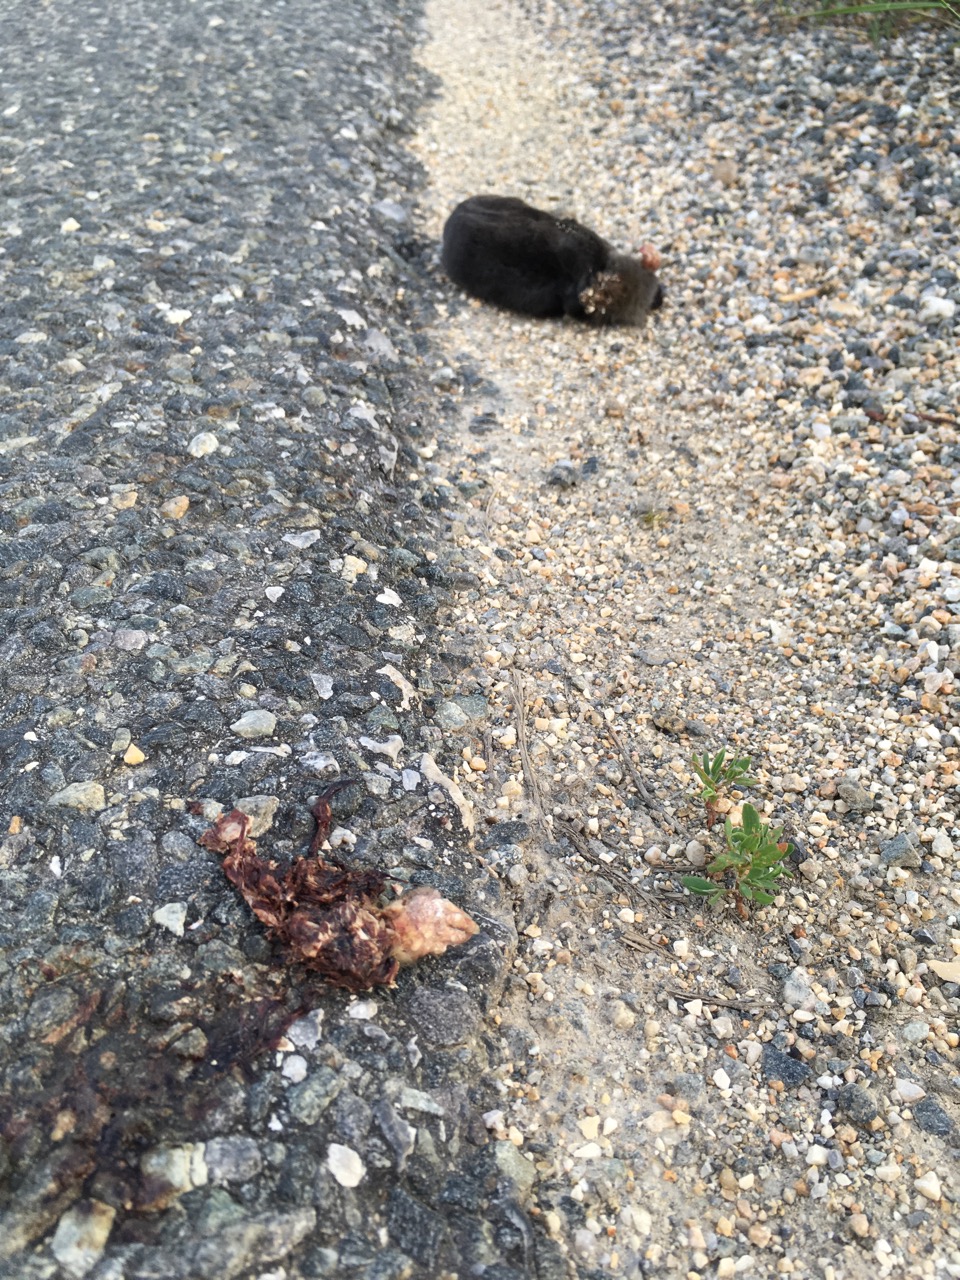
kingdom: Animalia
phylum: Chordata
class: Mammalia
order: Soricomorpha
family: Talpidae
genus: Talpa
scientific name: Talpa europaea
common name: European mole
